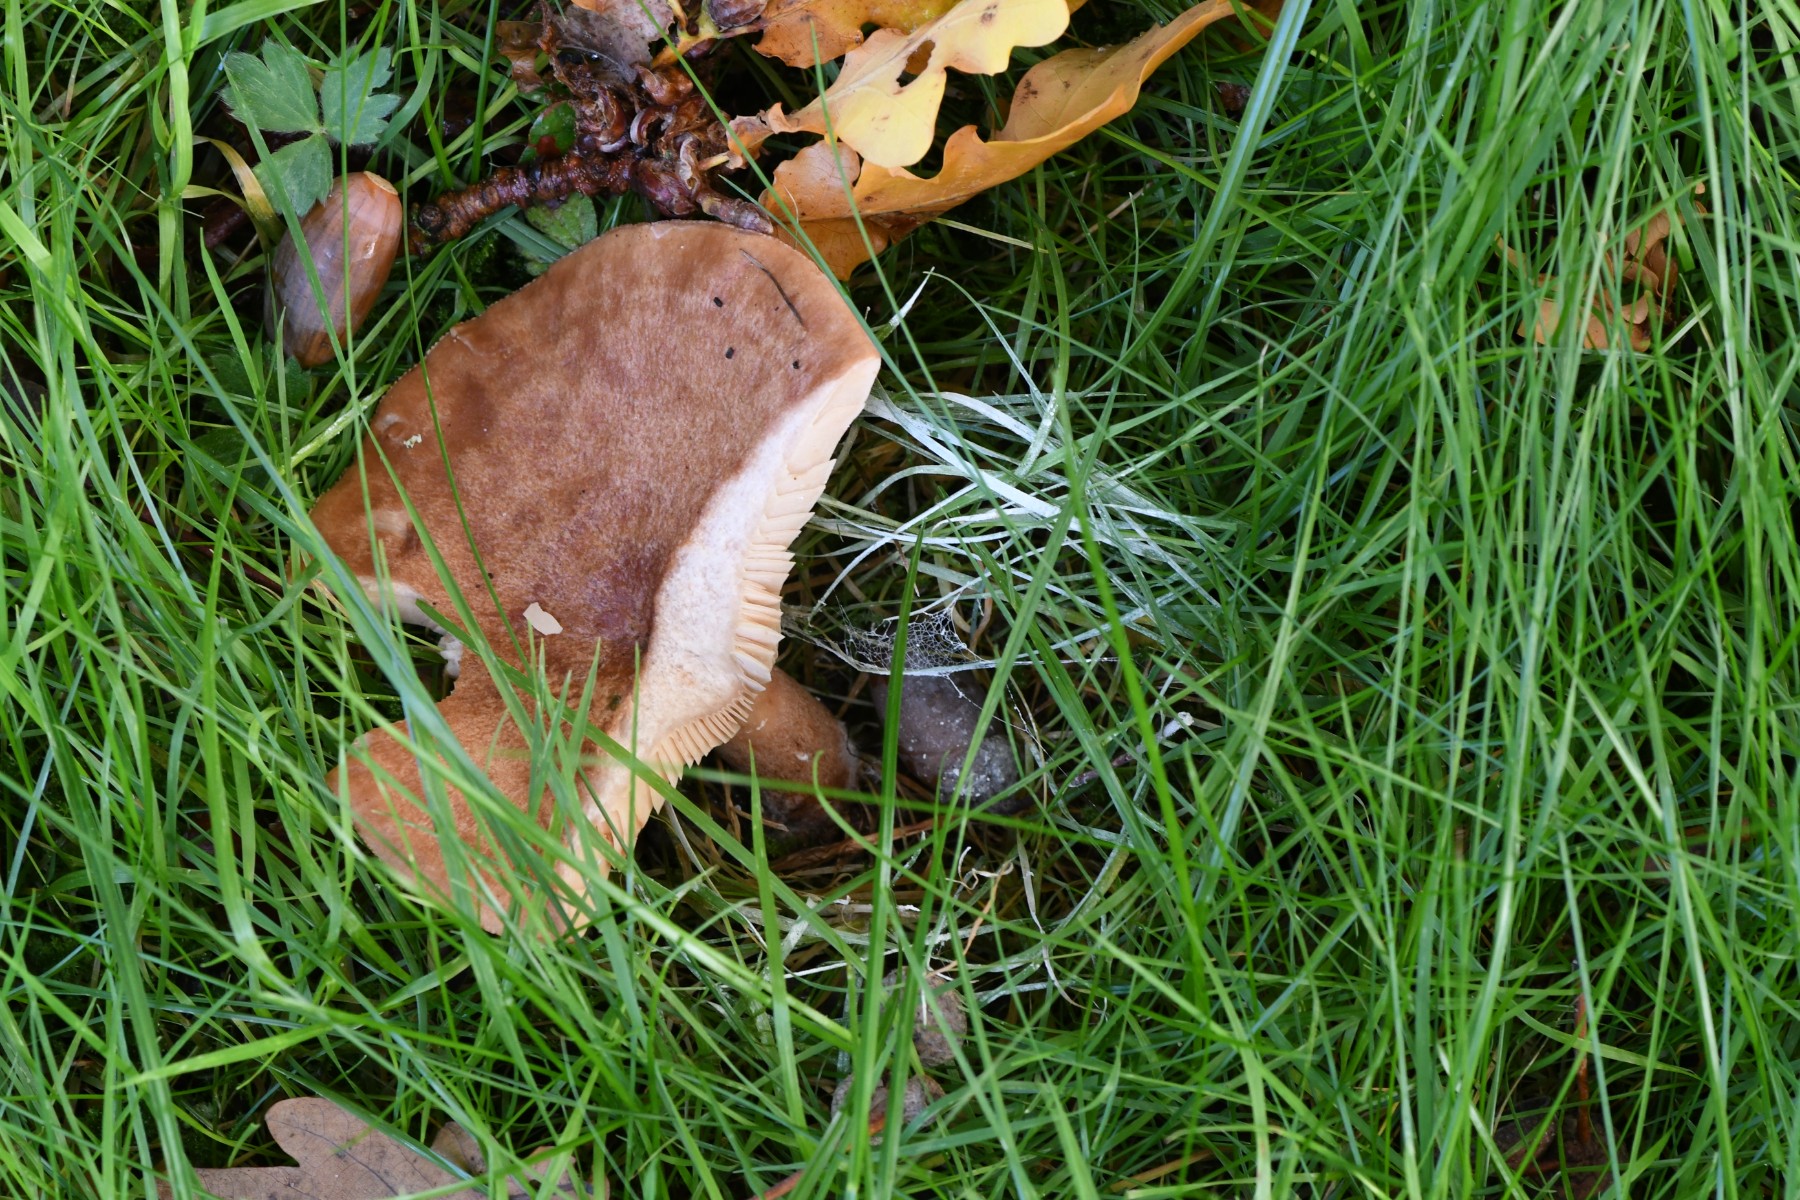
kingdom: Fungi
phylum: Basidiomycota
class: Agaricomycetes
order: Russulales
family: Russulaceae
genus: Lactarius
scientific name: Lactarius quietus
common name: ege-mælkehat
